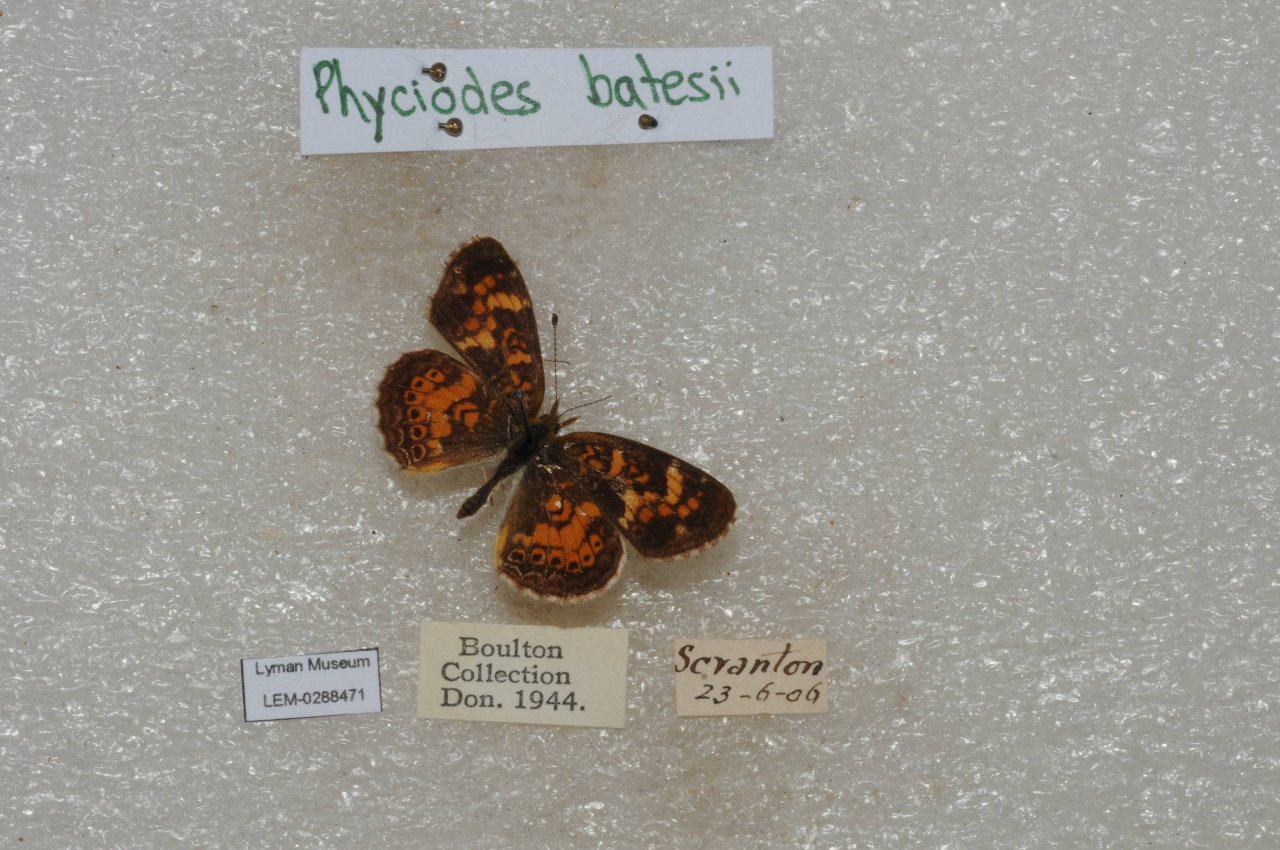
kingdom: Animalia
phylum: Arthropoda
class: Insecta
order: Lepidoptera
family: Nymphalidae
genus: Phyciodes
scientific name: Phyciodes batesii
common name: Tawny Crescent
